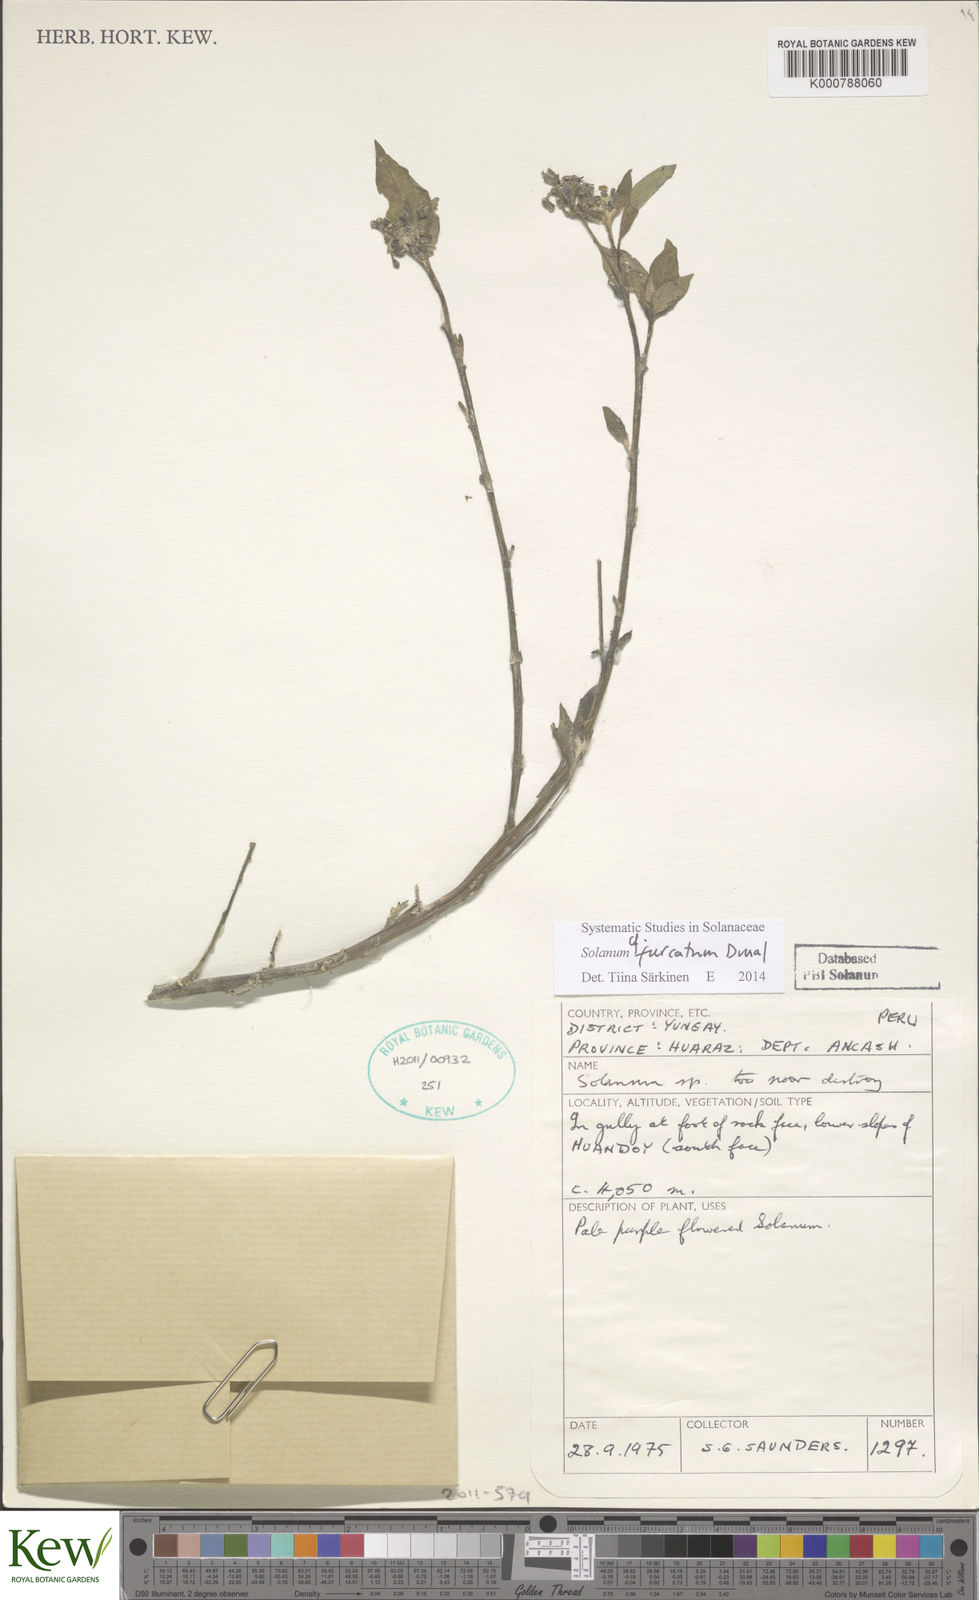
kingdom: Plantae
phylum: Tracheophyta
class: Magnoliopsida
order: Solanales
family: Solanaceae
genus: Solanum
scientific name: Solanum furcatum
